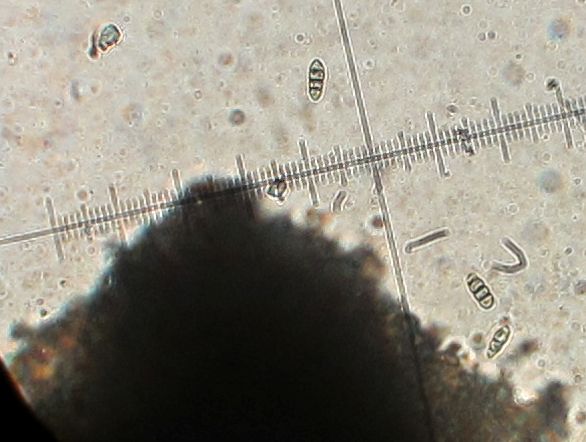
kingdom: Plantae
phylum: Bryophyta
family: Dothideomycetes
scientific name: Dothideomycetes
